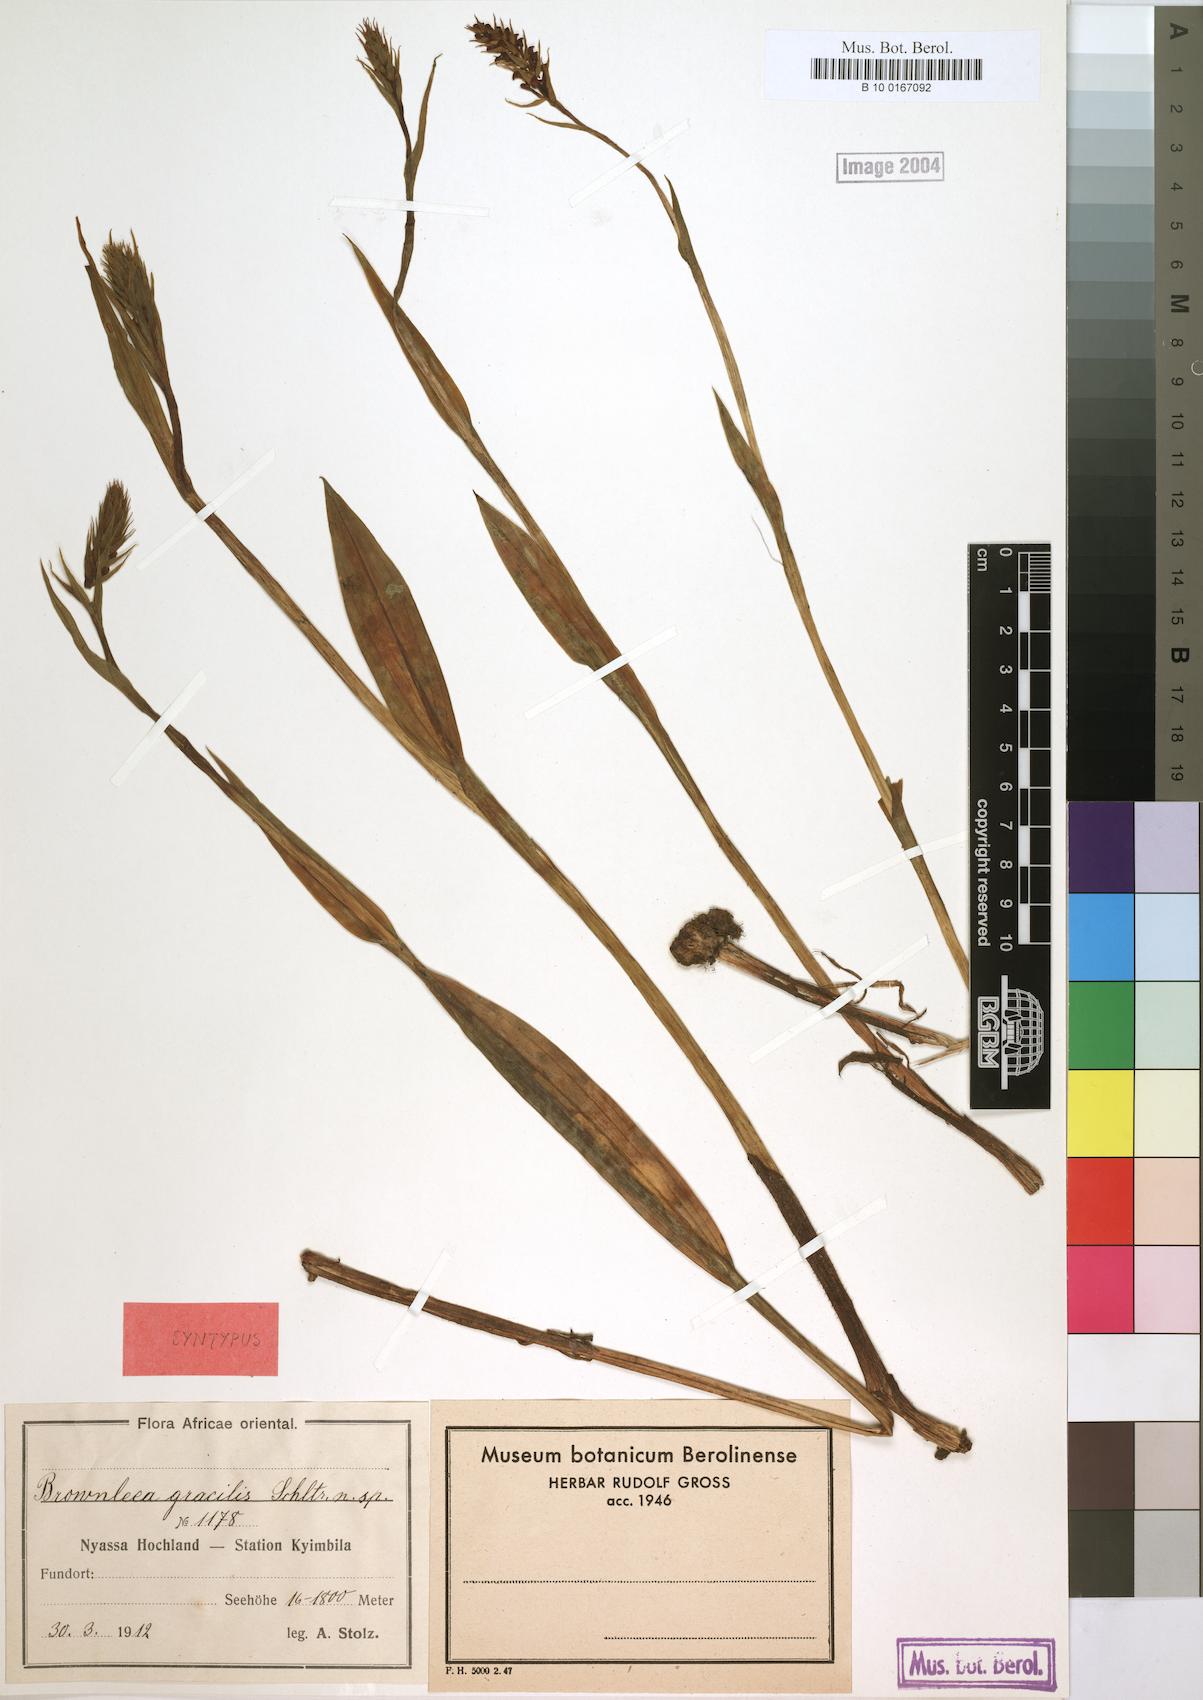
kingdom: Plantae
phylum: Tracheophyta
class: Liliopsida
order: Asparagales
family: Orchidaceae
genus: Brownleea
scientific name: Brownleea parviflora
